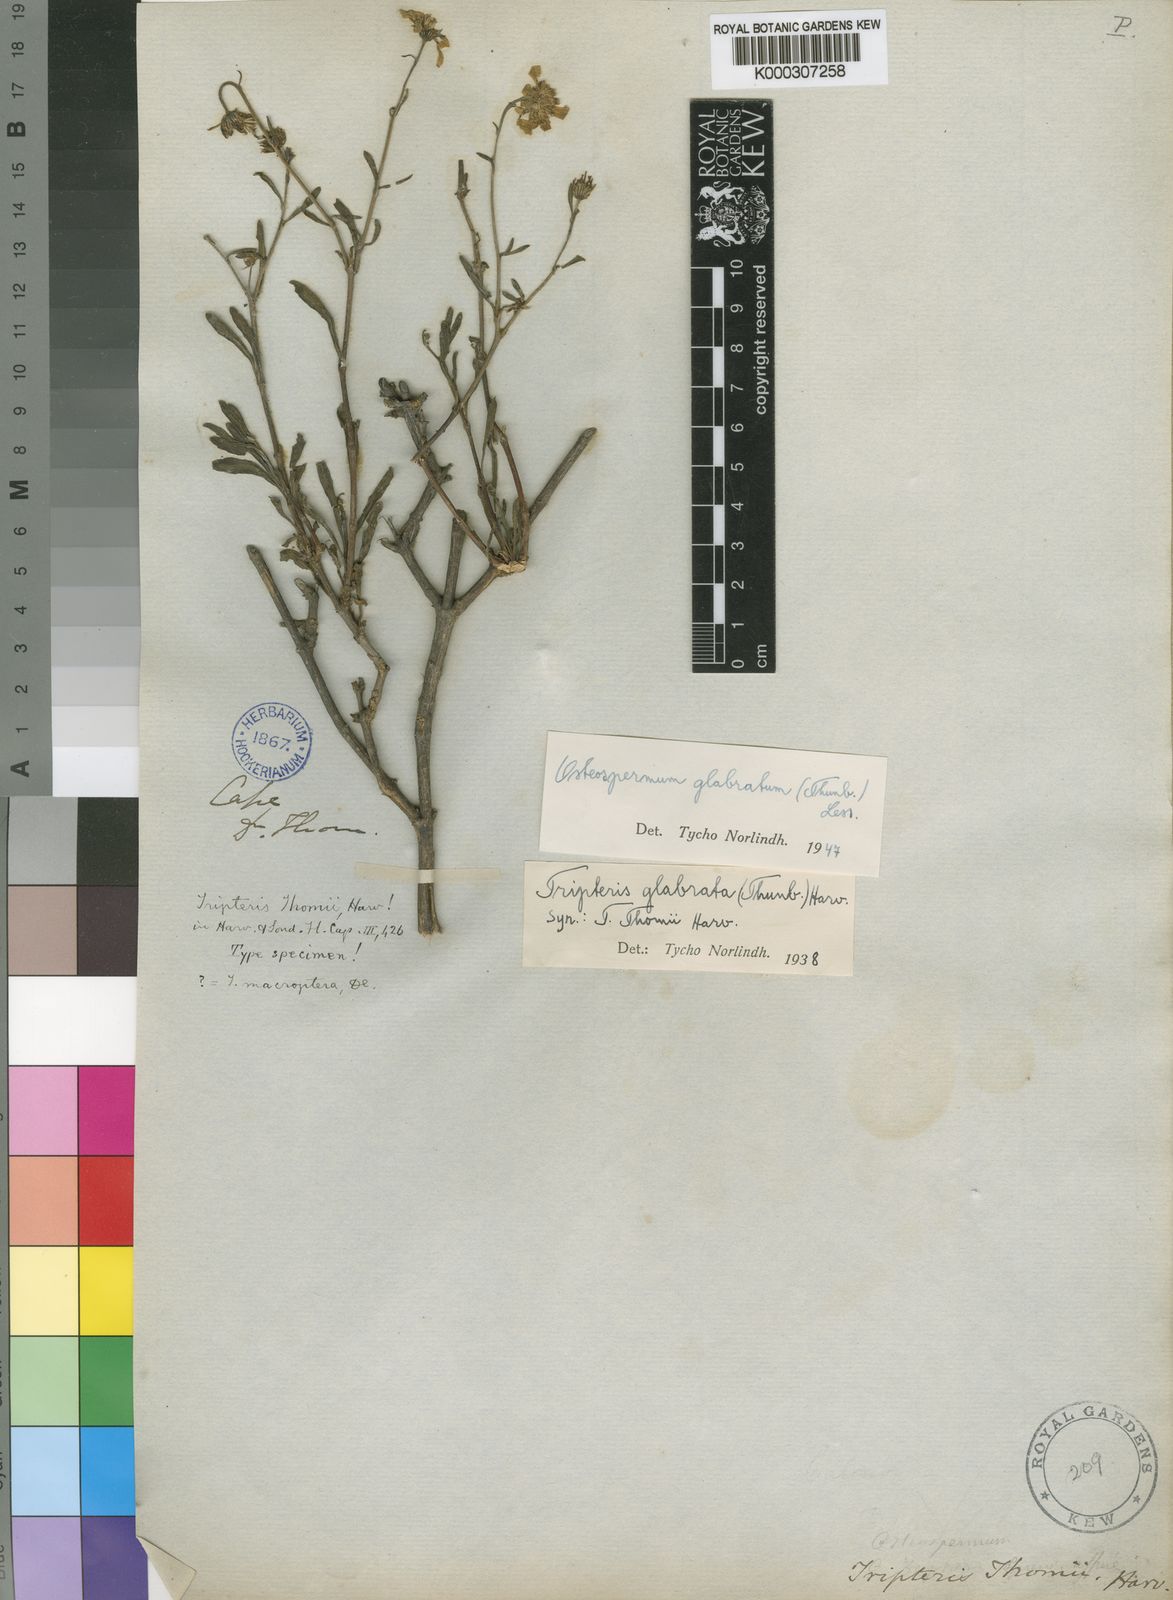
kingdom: Plantae
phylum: Tracheophyta
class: Magnoliopsida
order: Asterales
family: Asteraceae
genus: Osteospermum
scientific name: Osteospermum oppositifolium
